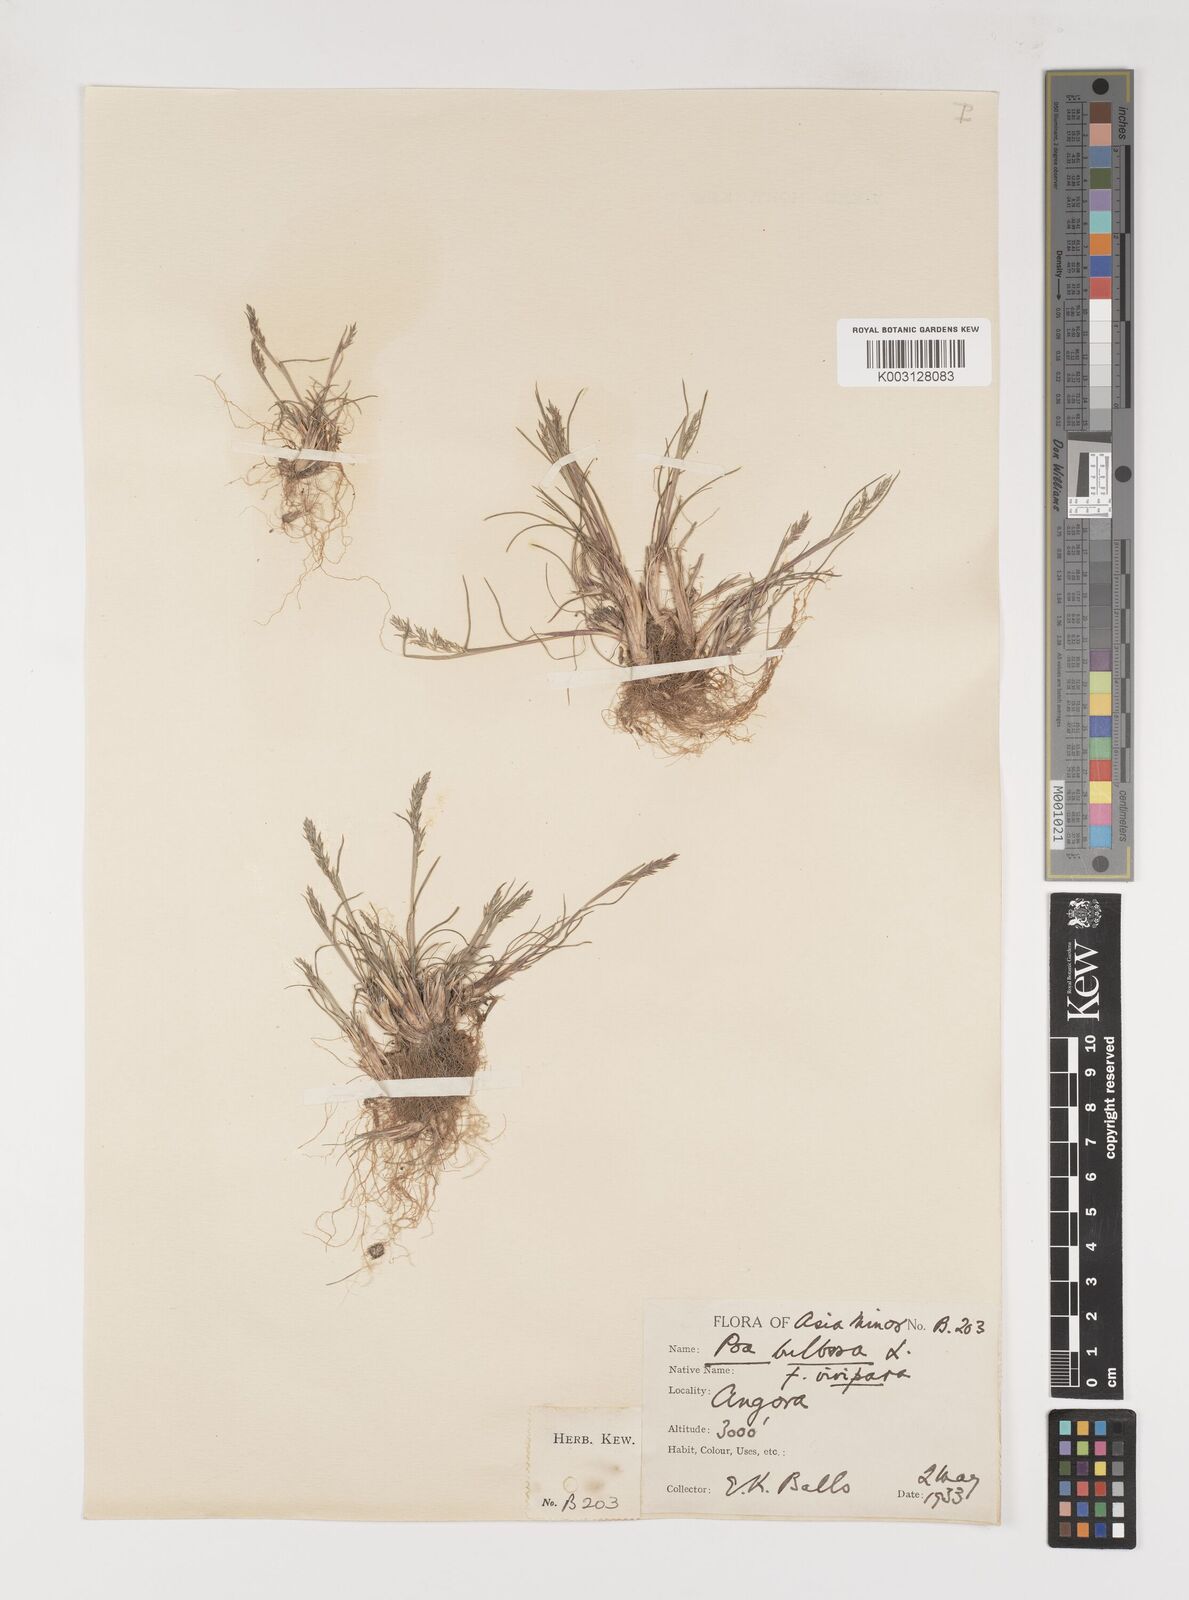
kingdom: Plantae
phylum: Tracheophyta
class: Liliopsida
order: Poales
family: Poaceae
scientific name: Poaceae
